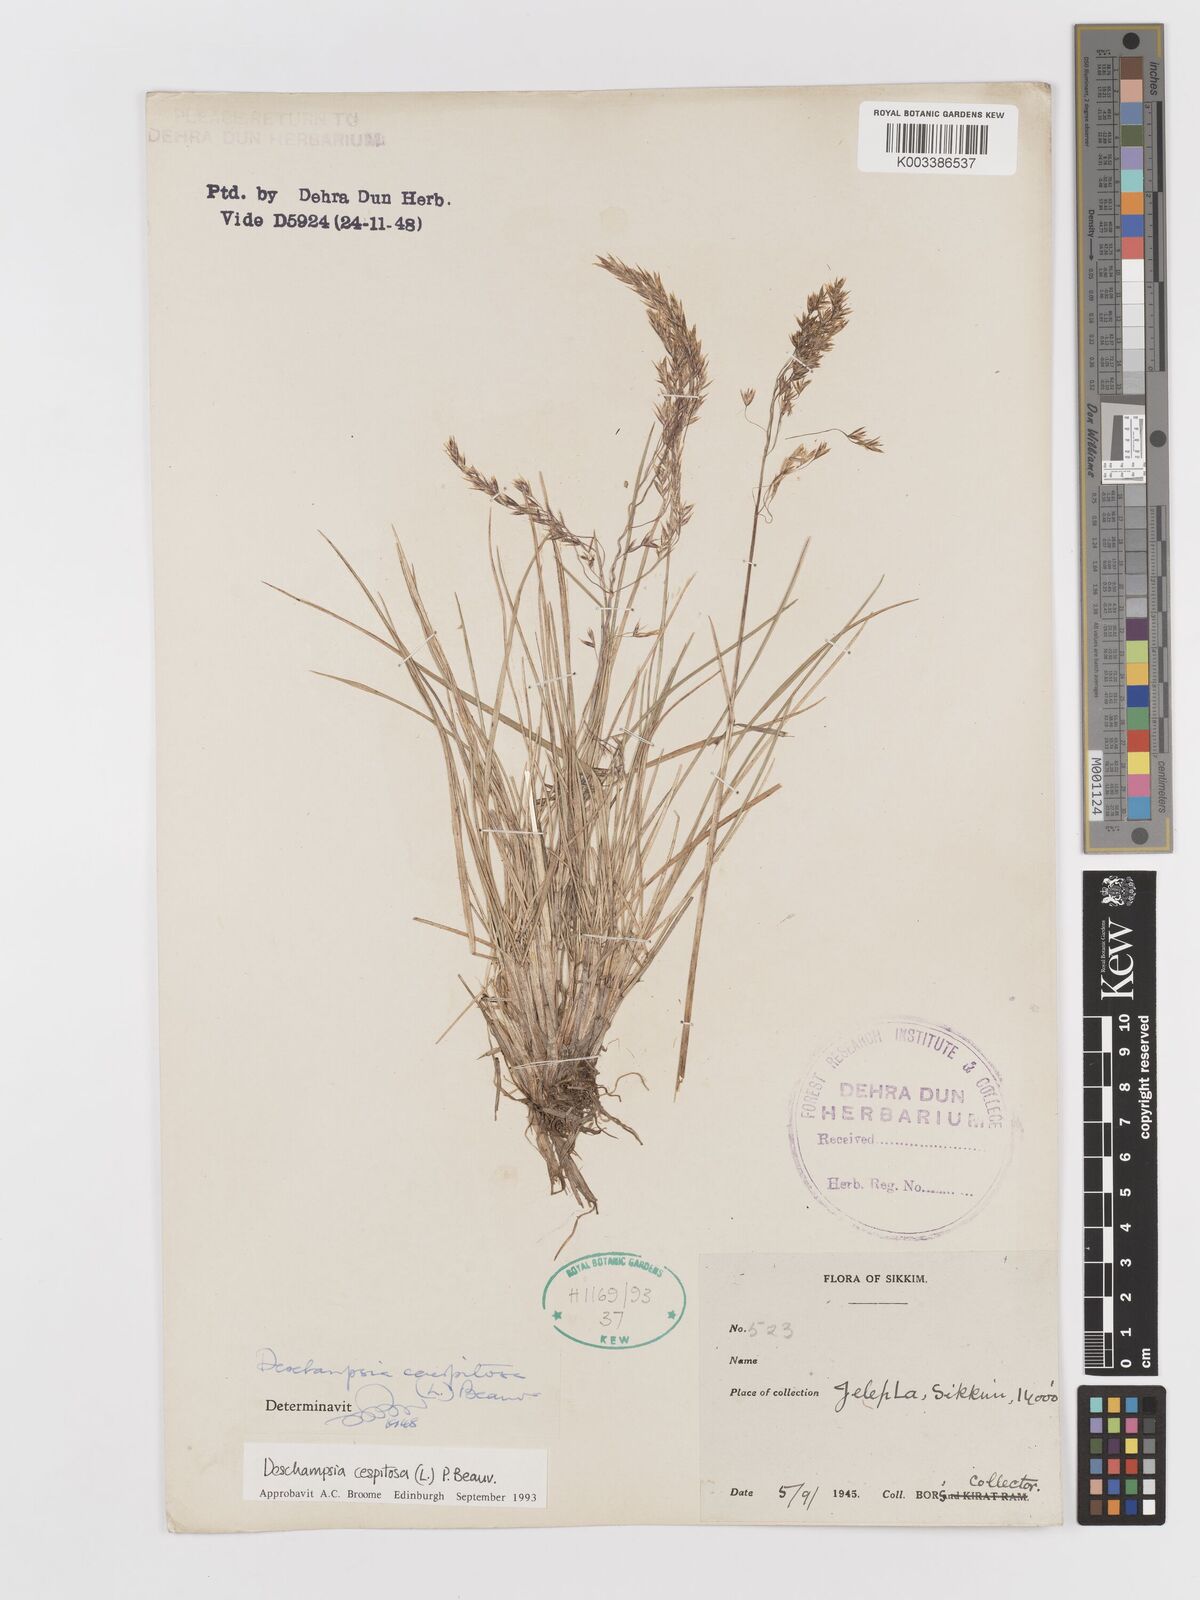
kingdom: Plantae
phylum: Tracheophyta
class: Liliopsida
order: Poales
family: Poaceae
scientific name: Poaceae
